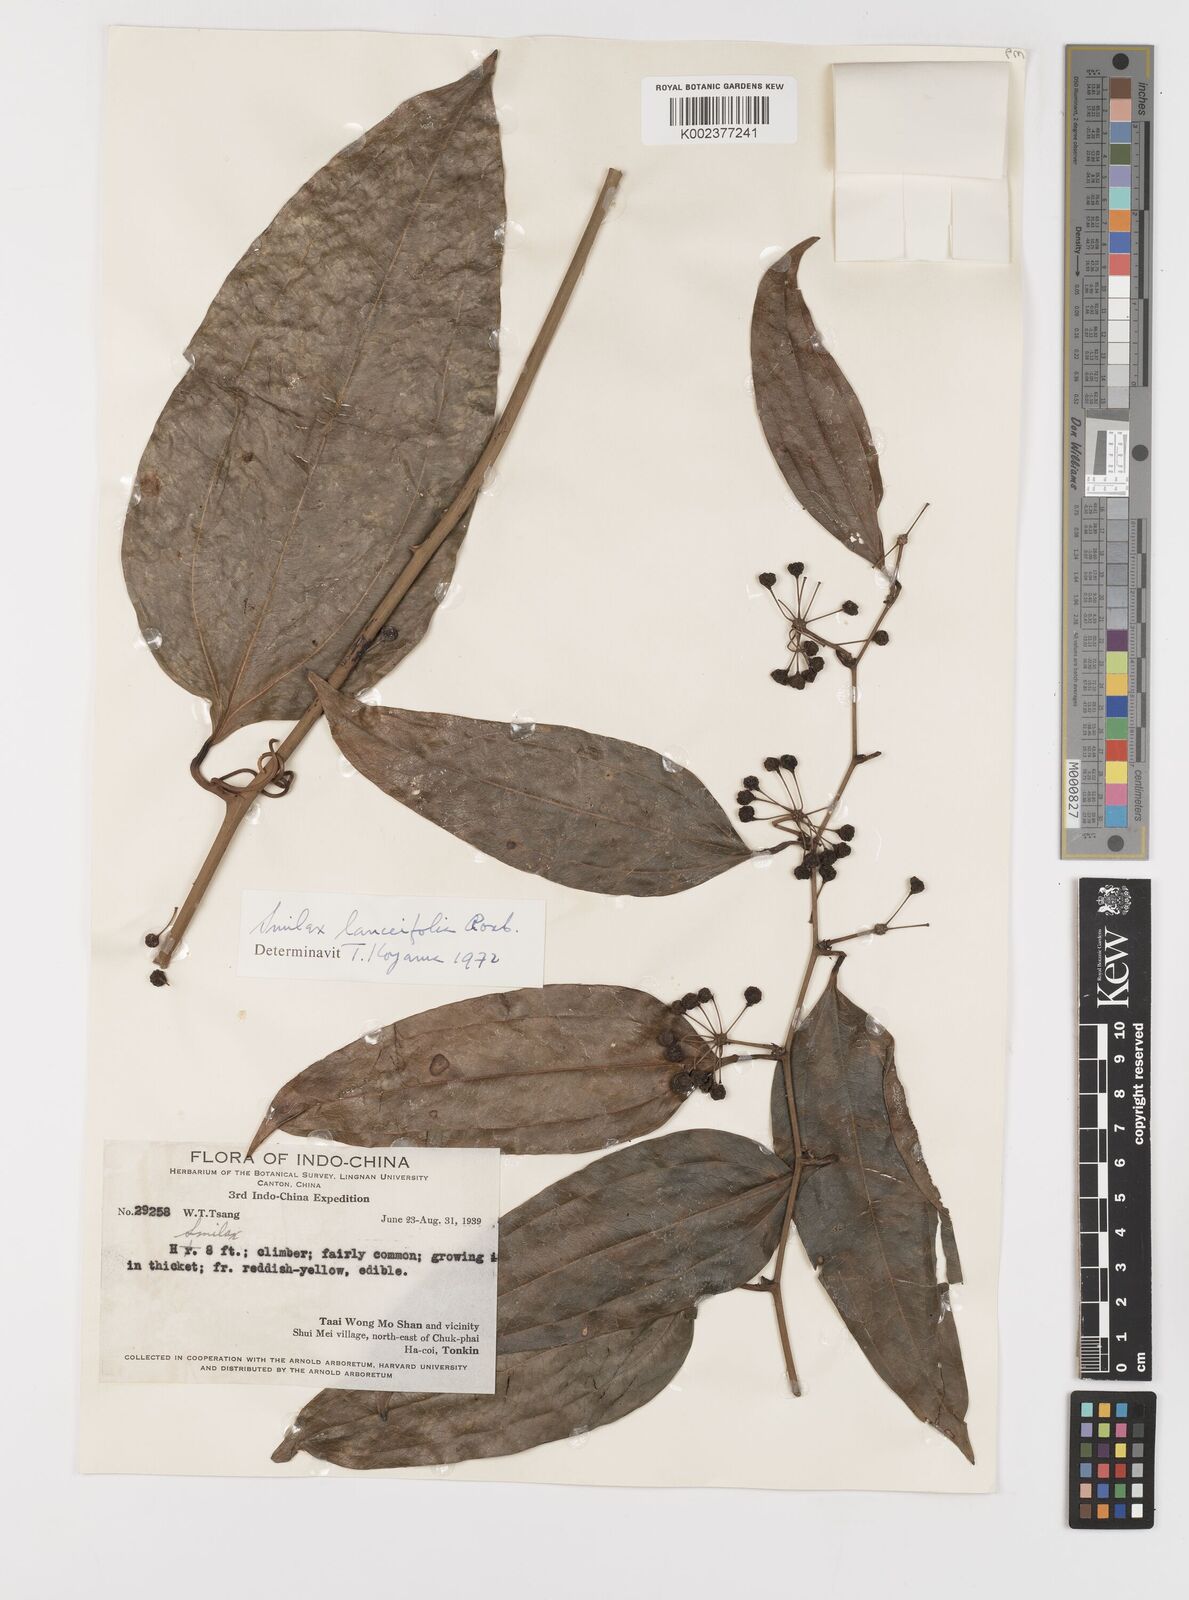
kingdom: Plantae
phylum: Tracheophyta
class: Liliopsida
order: Liliales
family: Smilacaceae
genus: Smilax
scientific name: Smilax lanceifolia
